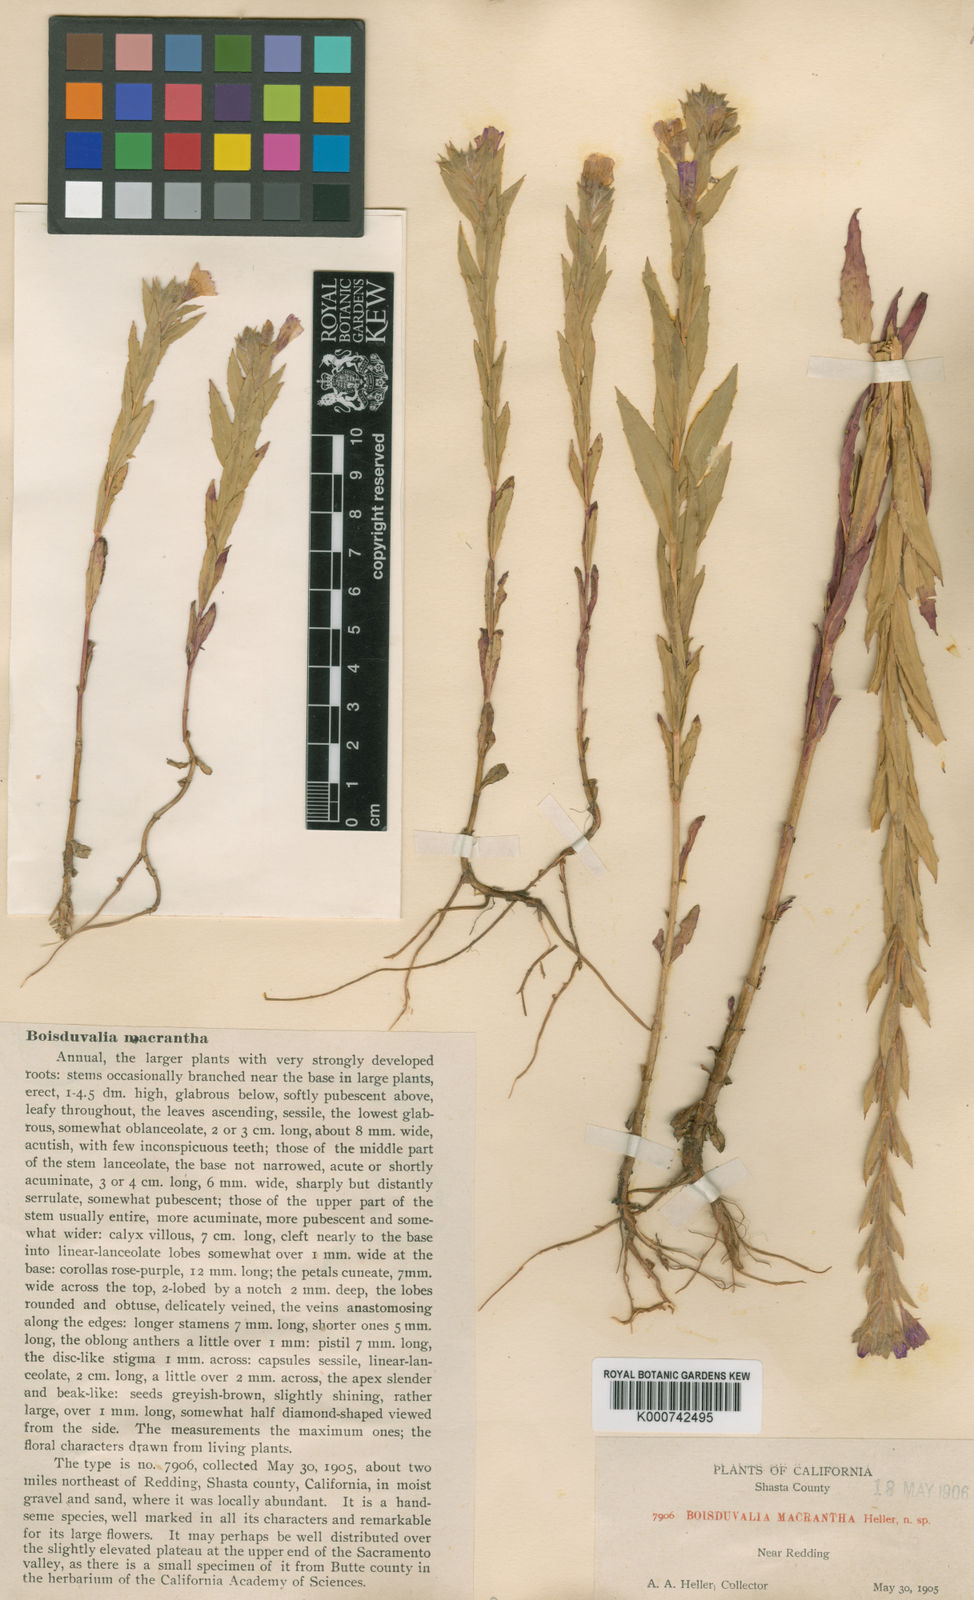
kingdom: Plantae
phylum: Tracheophyta
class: Magnoliopsida
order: Myrtales
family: Onagraceae
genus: Epilobium
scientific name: Epilobium pallidum
